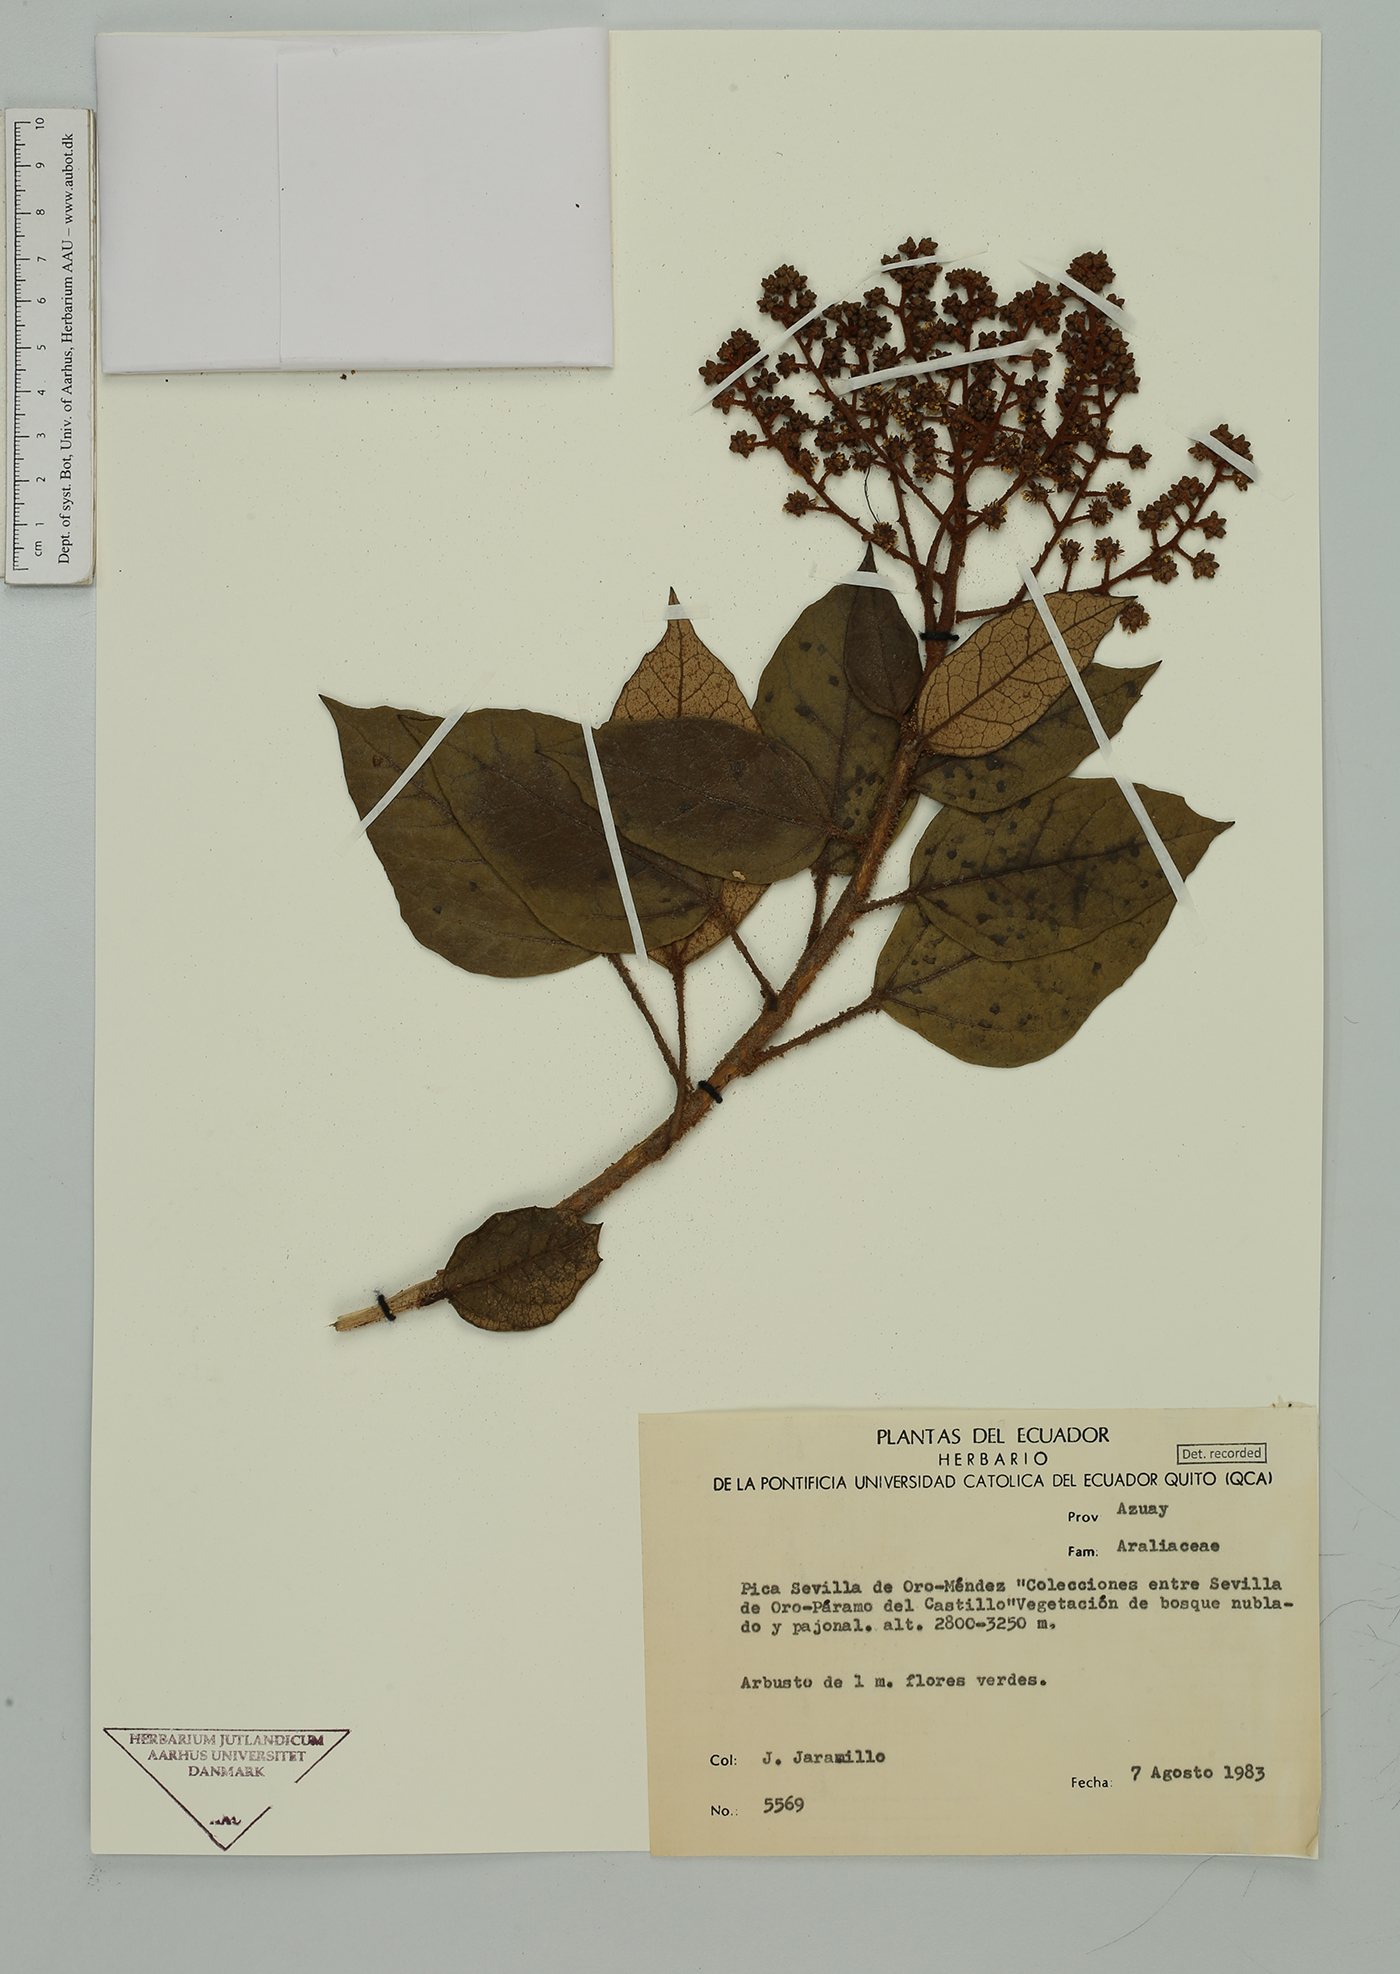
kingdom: Plantae
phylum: Tracheophyta
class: Magnoliopsida
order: Apiales
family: Araliaceae
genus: Oreopanax
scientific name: Oreopanax
